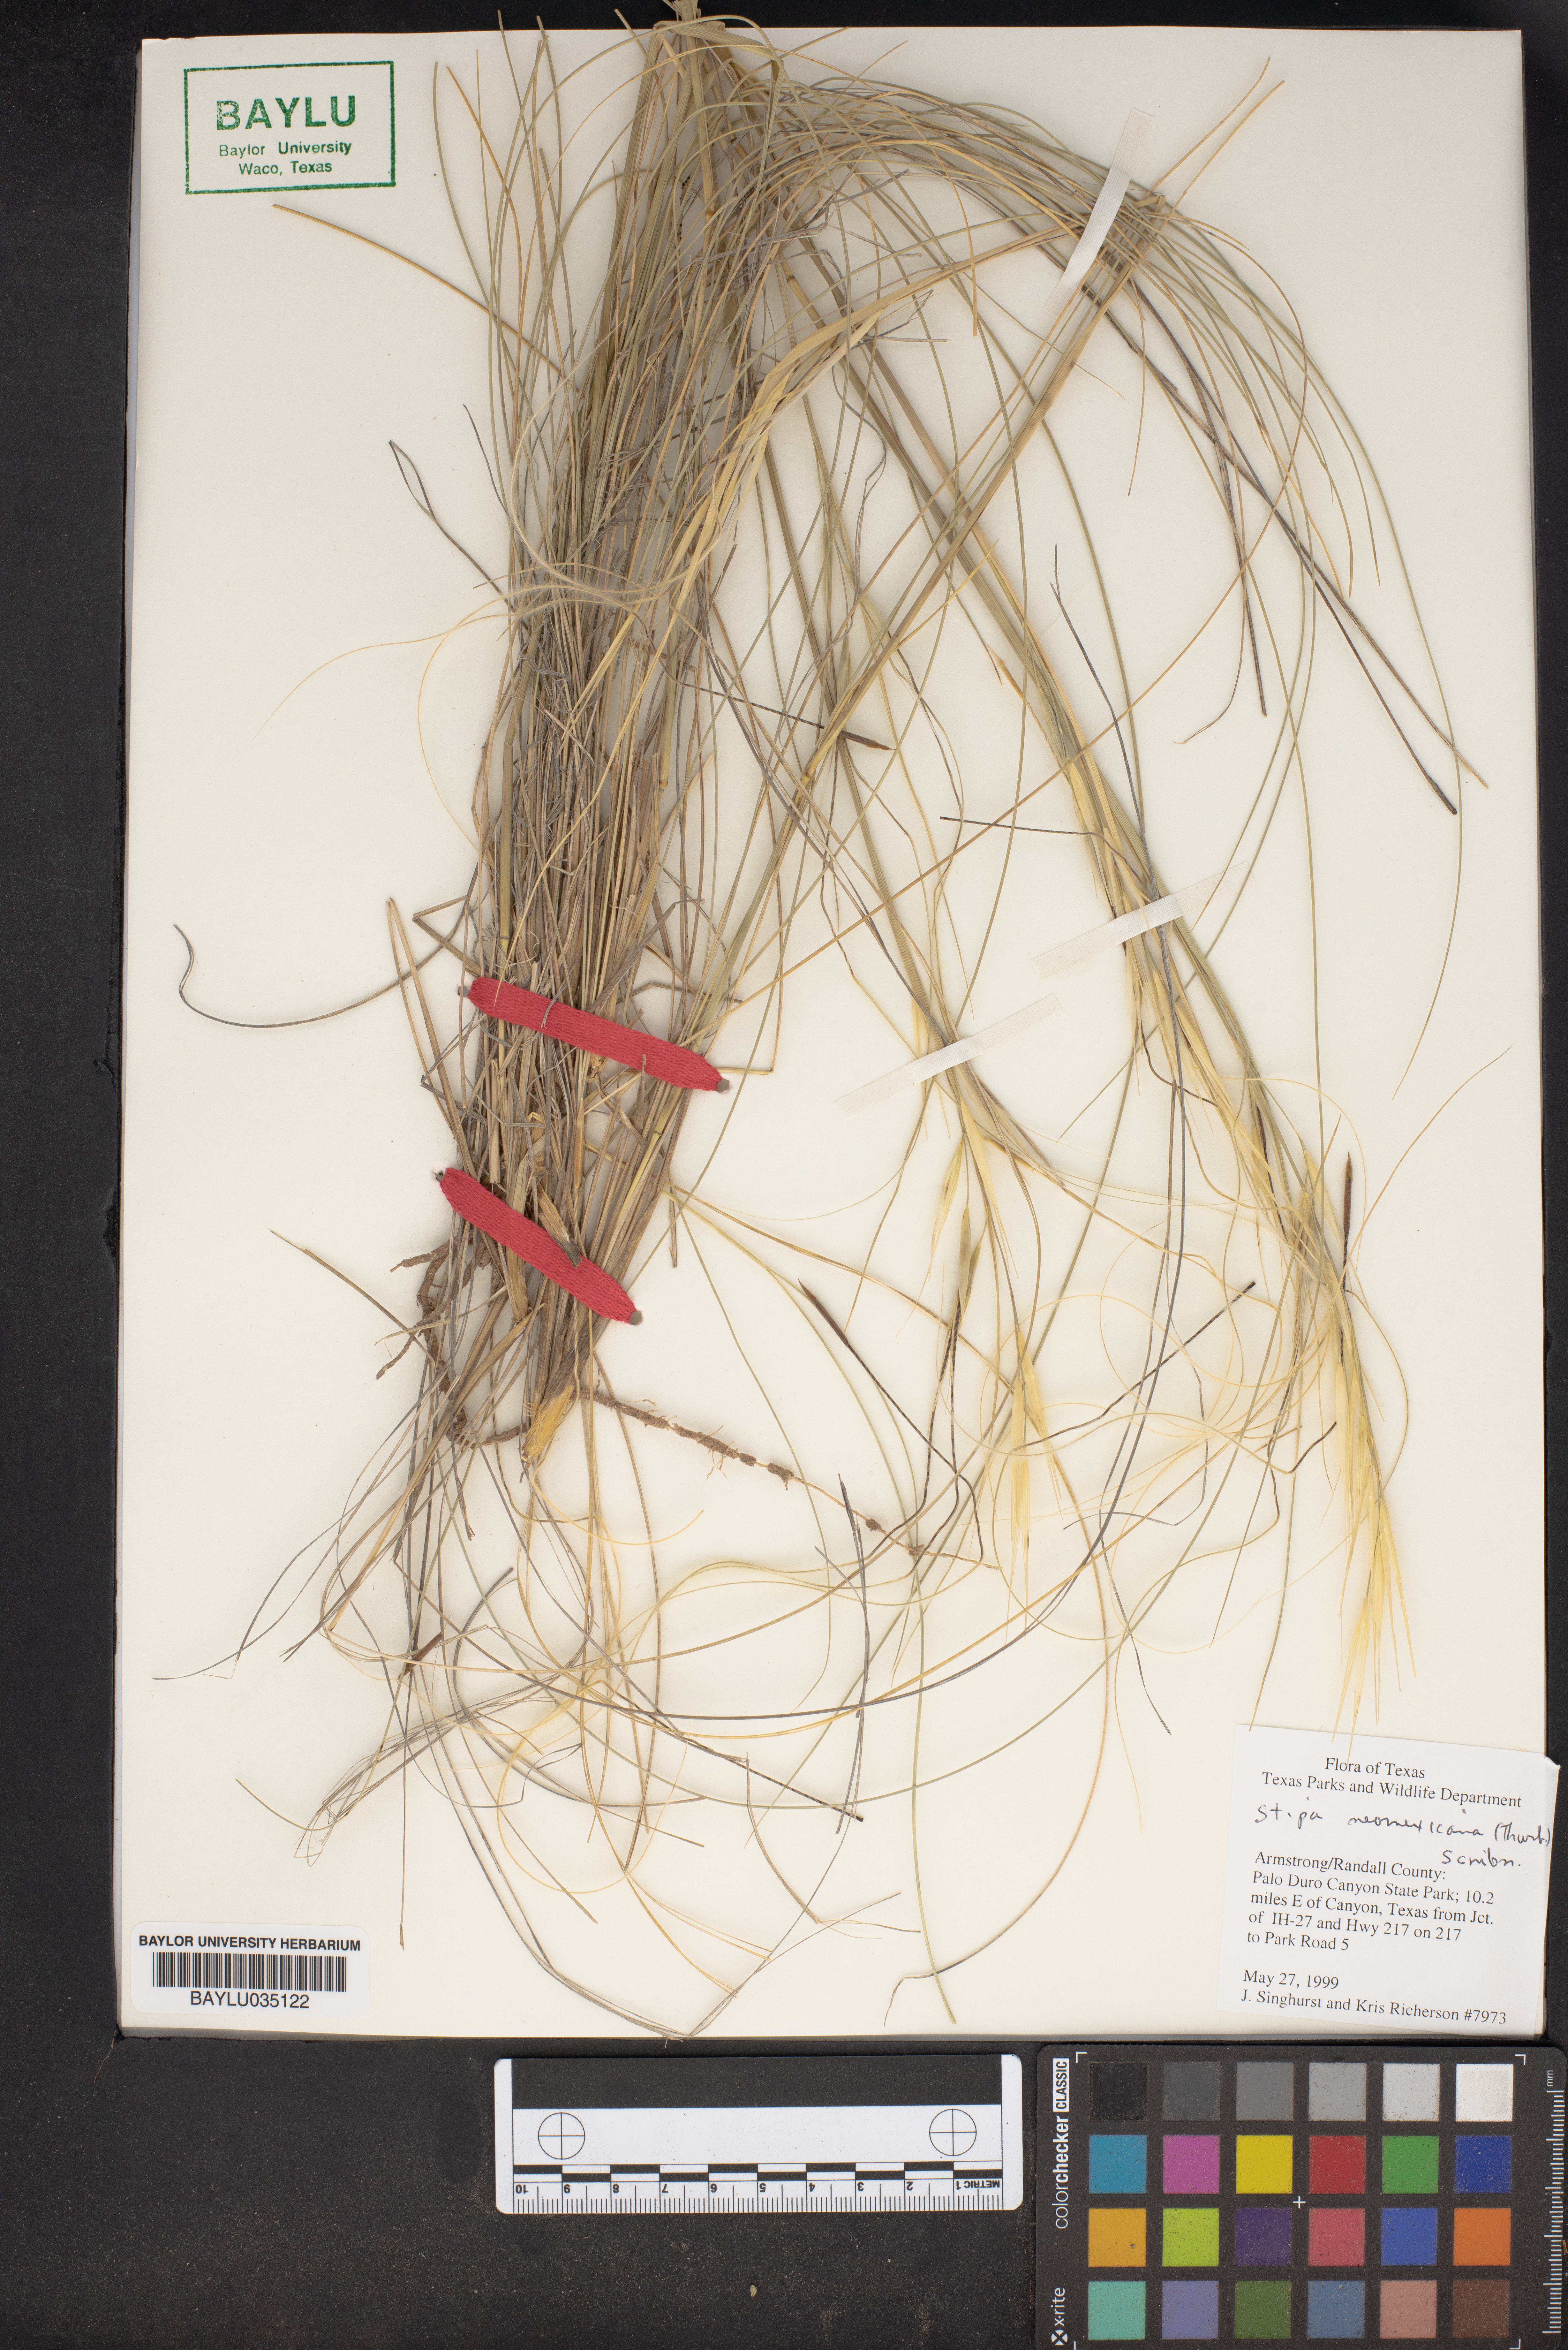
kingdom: Plantae
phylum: Tracheophyta
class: Liliopsida
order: Poales
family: Poaceae
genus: Hesperostipa
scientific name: Hesperostipa neomexicana
